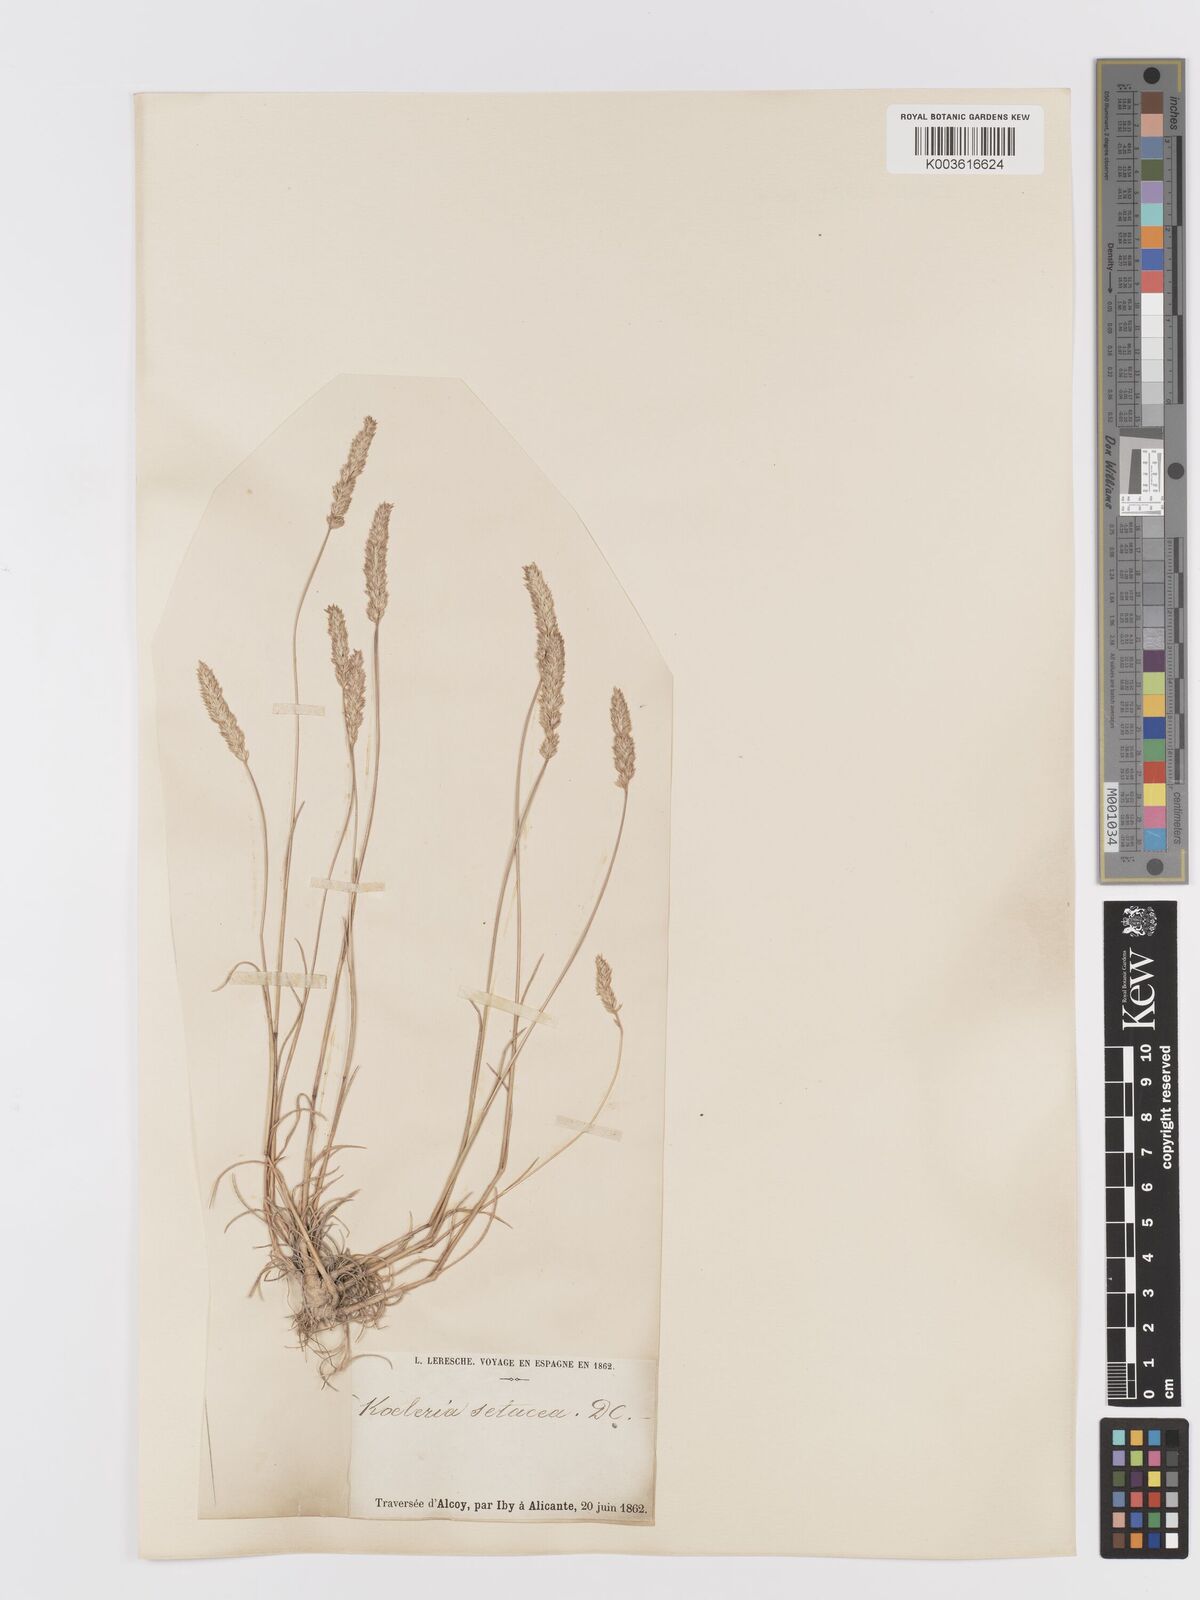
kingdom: Plantae
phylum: Tracheophyta
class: Liliopsida
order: Poales
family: Poaceae
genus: Koeleria
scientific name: Koeleria vallesiana
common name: Somerset hair-grass
